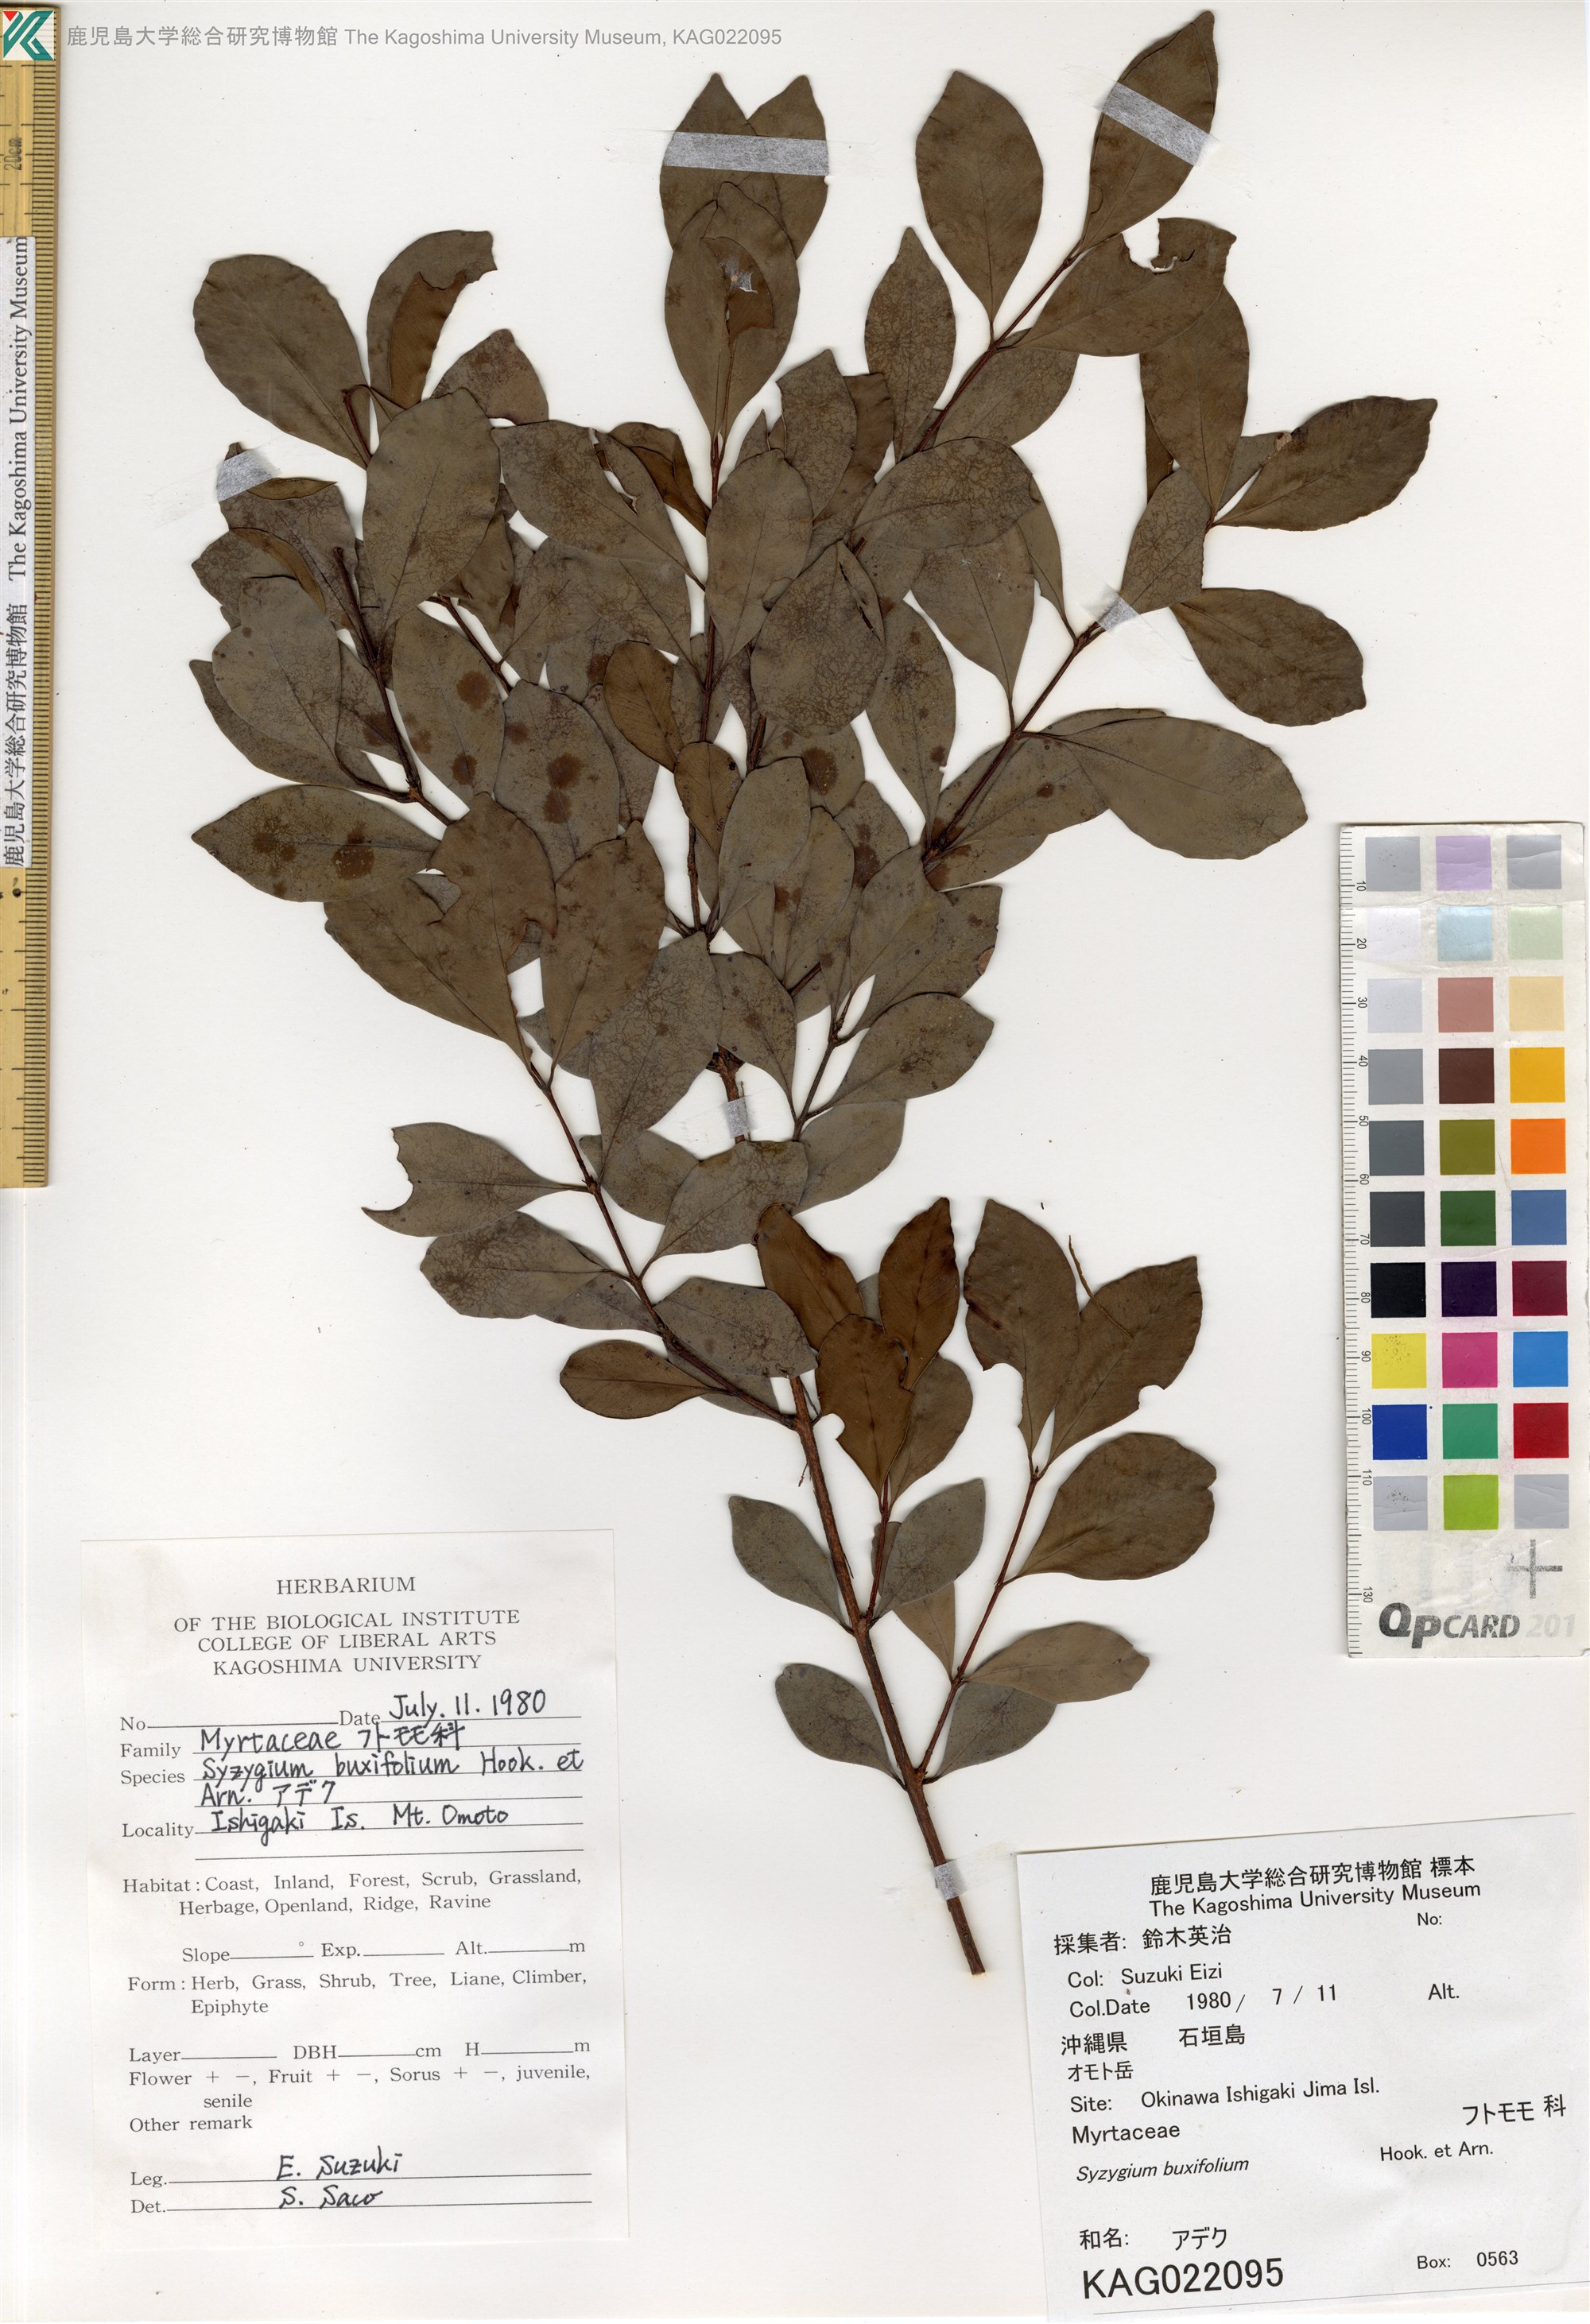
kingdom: Plantae
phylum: Tracheophyta
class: Magnoliopsida
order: Myrtales
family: Myrtaceae
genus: Syzygium
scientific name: Syzygium buxifolium
